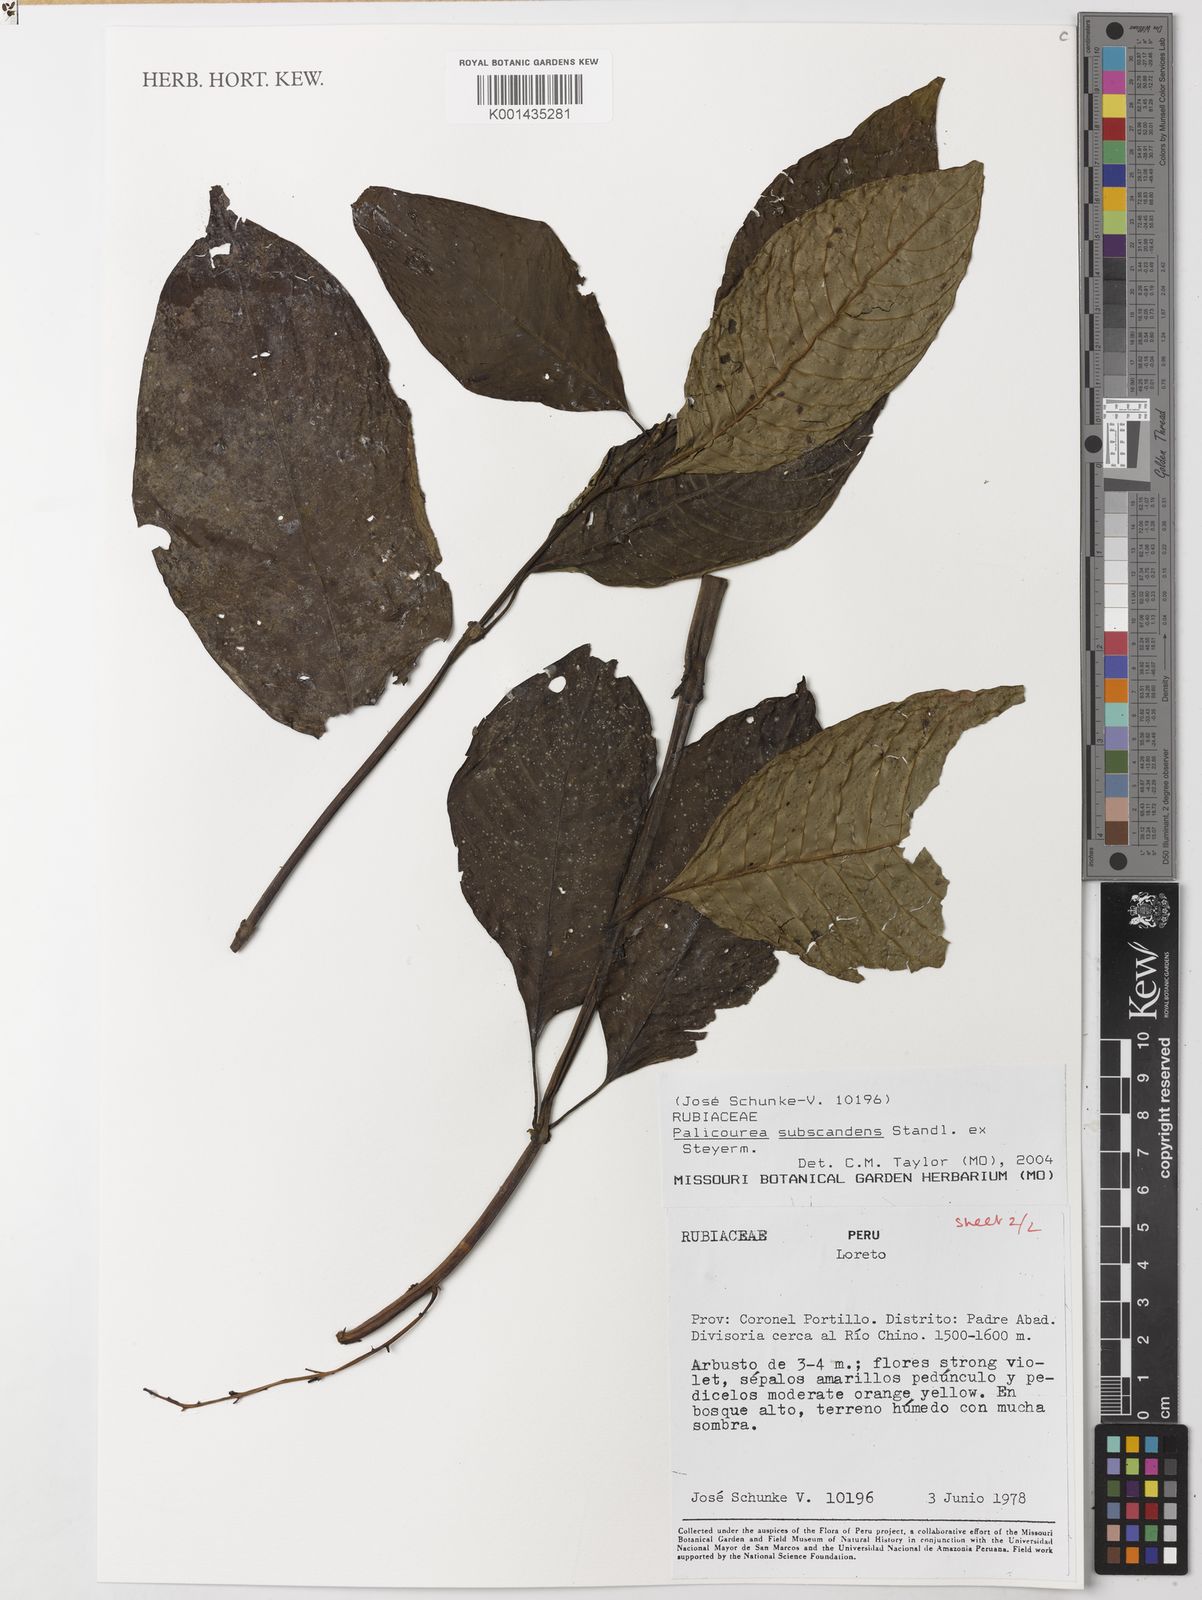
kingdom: Plantae
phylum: Tracheophyta
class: Magnoliopsida
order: Gentianales
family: Rubiaceae
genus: Palicourea
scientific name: Palicourea subscandens
